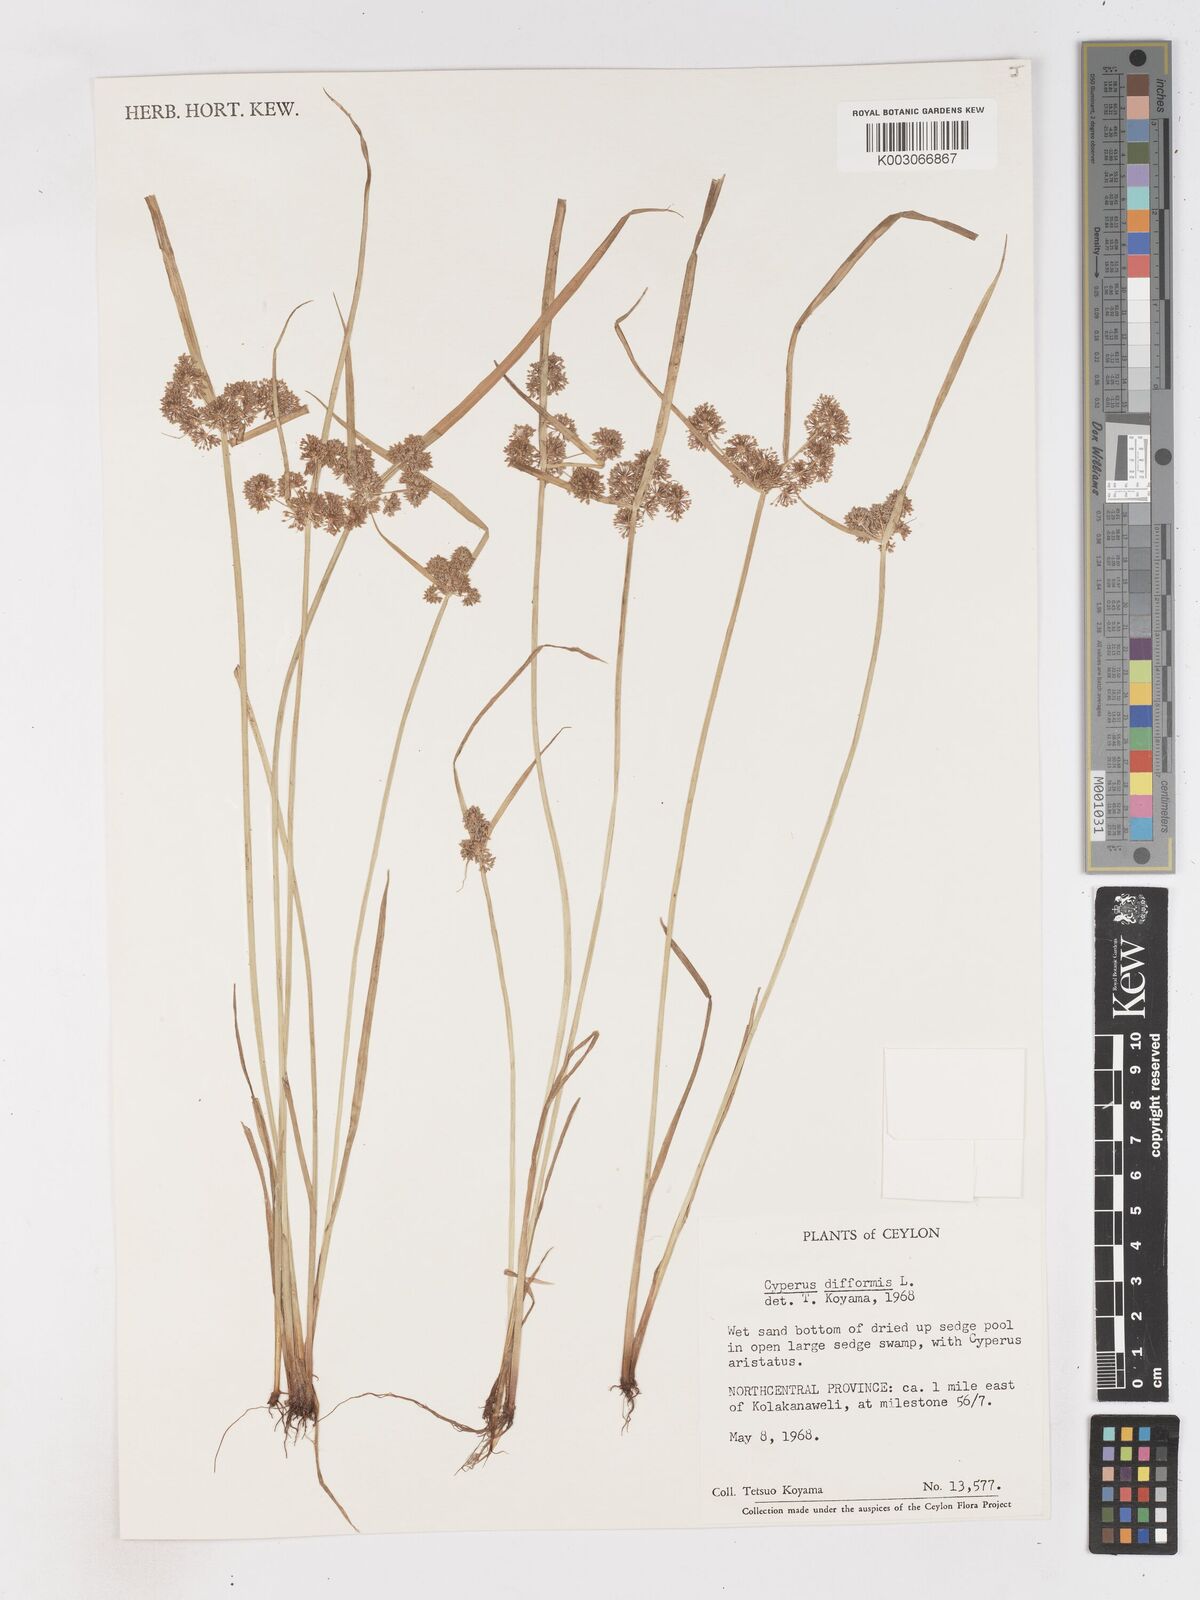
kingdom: Plantae
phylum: Tracheophyta
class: Liliopsida
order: Poales
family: Cyperaceae
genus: Cyperus
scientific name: Cyperus difformis
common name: Variable flatsedge
